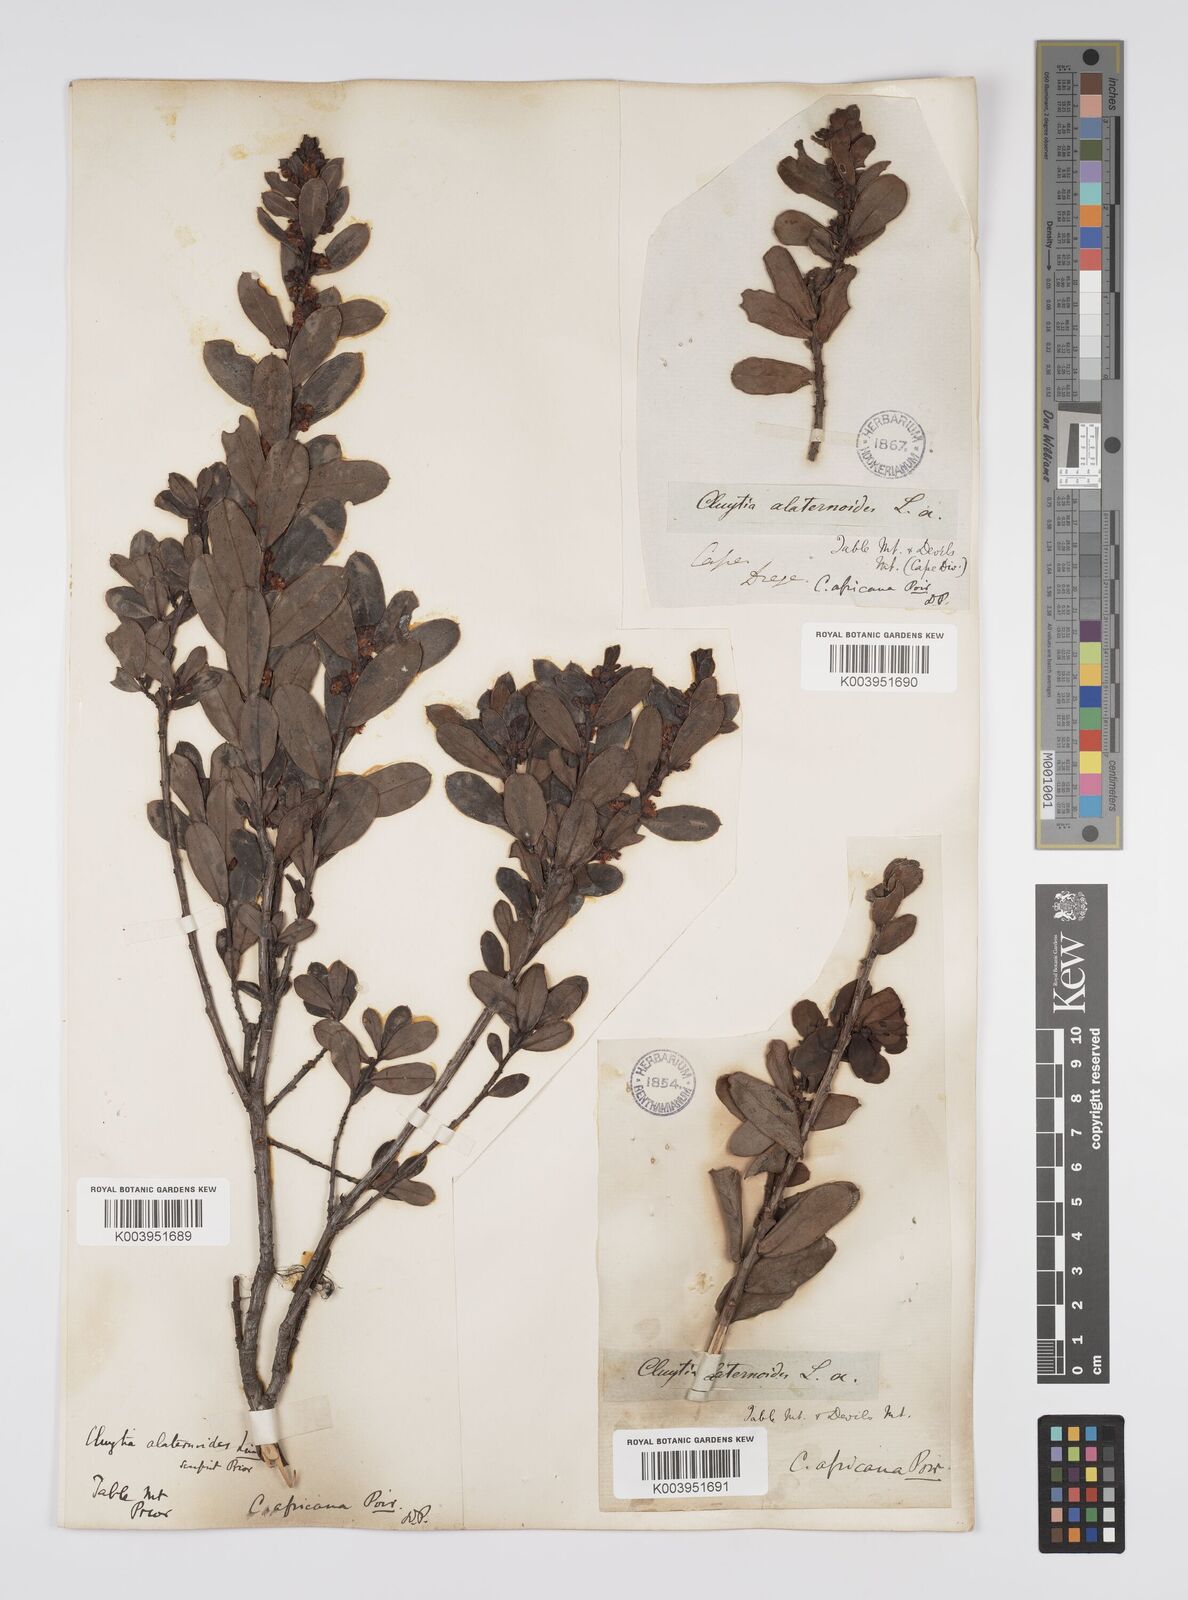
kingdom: Plantae
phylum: Tracheophyta
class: Magnoliopsida
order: Malpighiales
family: Peraceae
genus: Clutia
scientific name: Clutia africana
